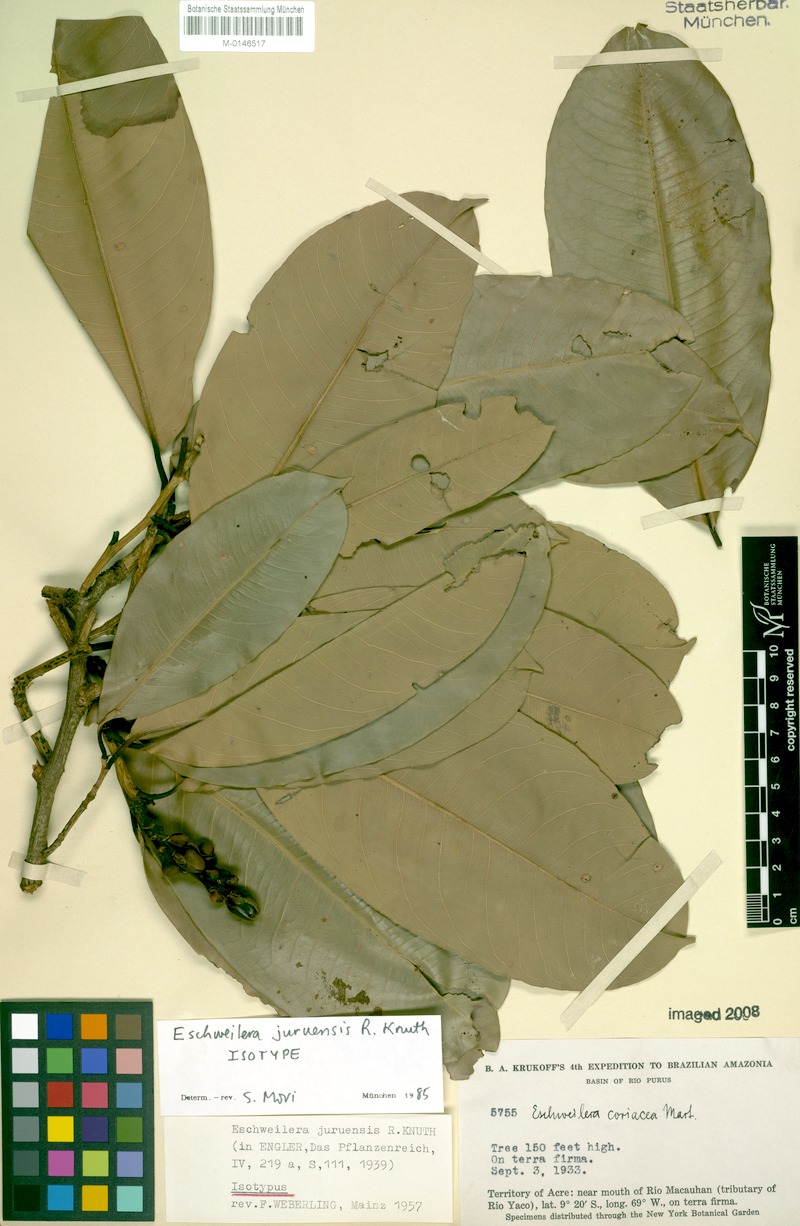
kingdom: Plantae
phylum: Tracheophyta
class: Magnoliopsida
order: Ericales
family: Lecythidaceae
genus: Eschweilera
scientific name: Eschweilera juruensis
